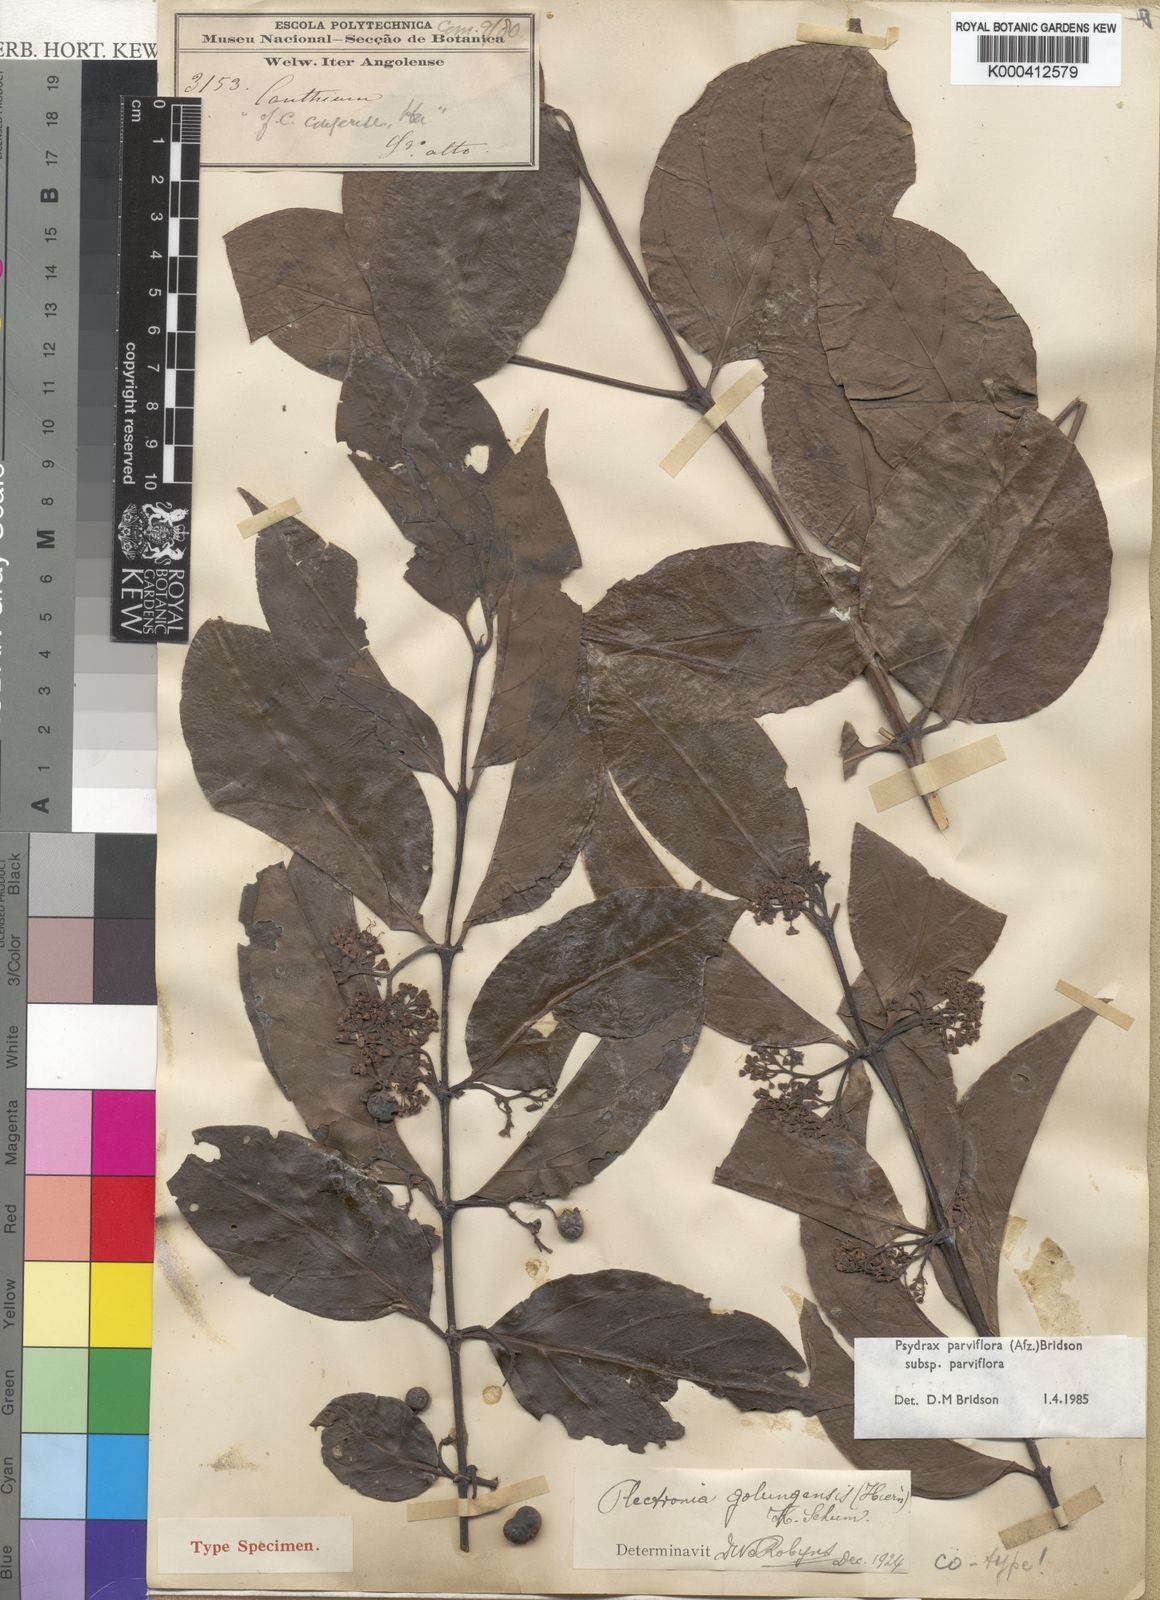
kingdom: Plantae
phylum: Tracheophyta
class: Magnoliopsida
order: Gentianales
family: Rubiaceae
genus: Psydrax
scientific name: Psydrax parviflorus
